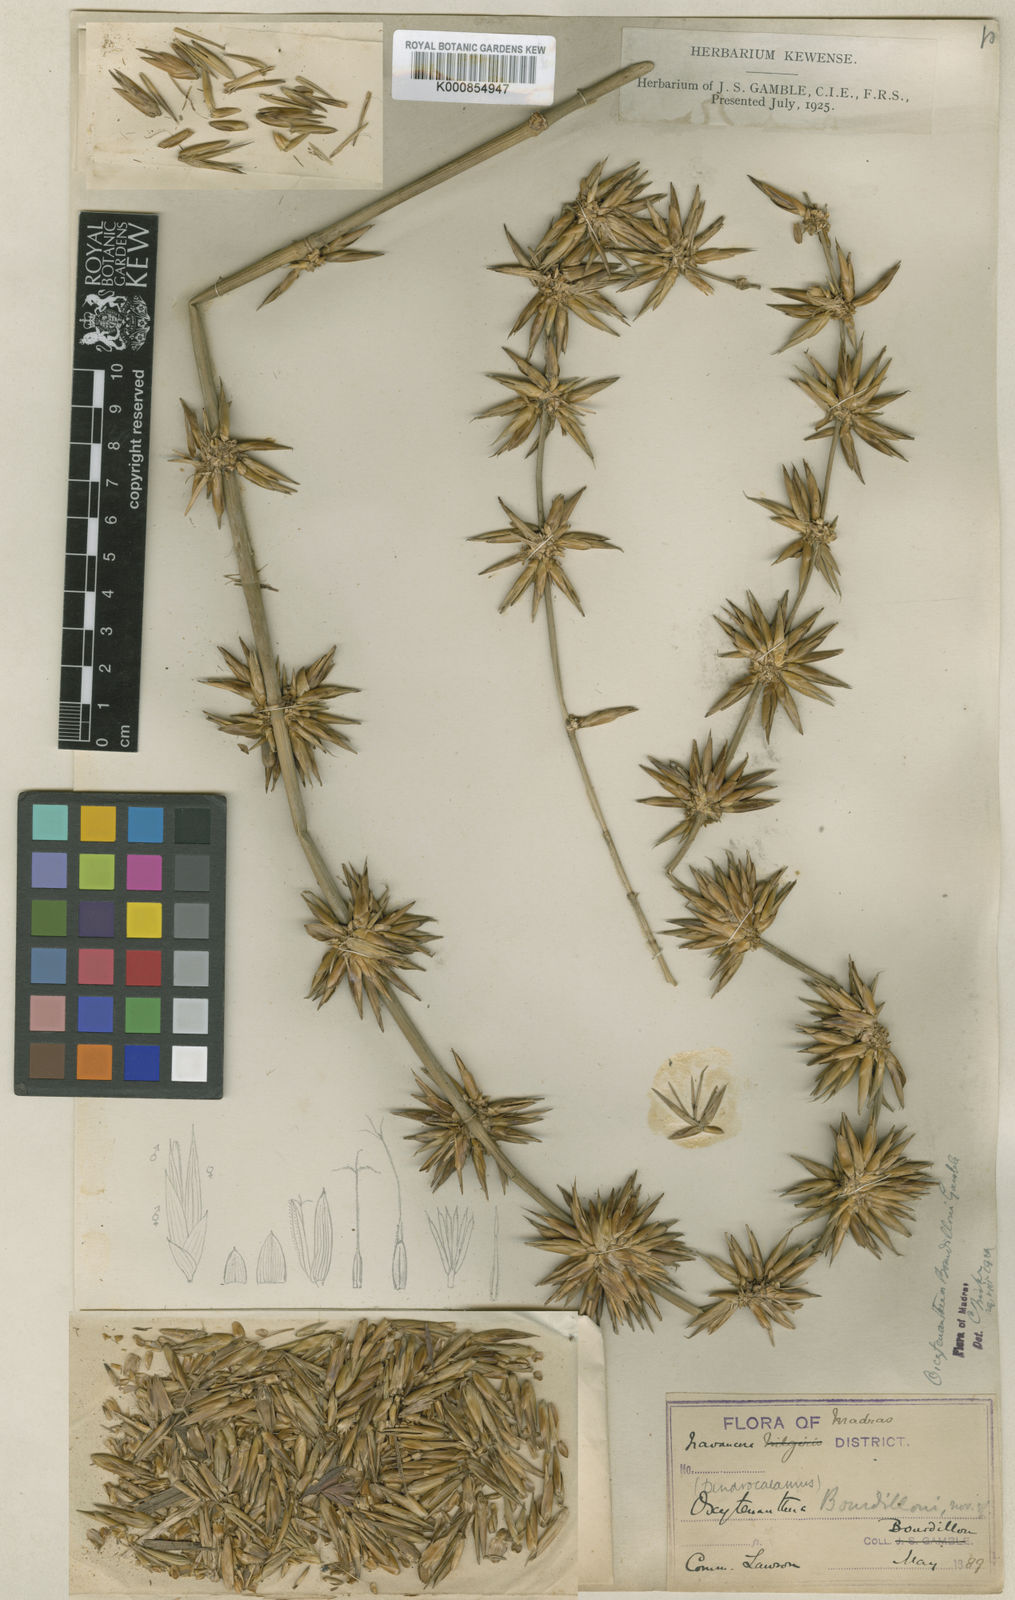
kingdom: Plantae
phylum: Tracheophyta
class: Liliopsida
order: Poales
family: Poaceae
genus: Dendrocalamus
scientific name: Dendrocalamus
